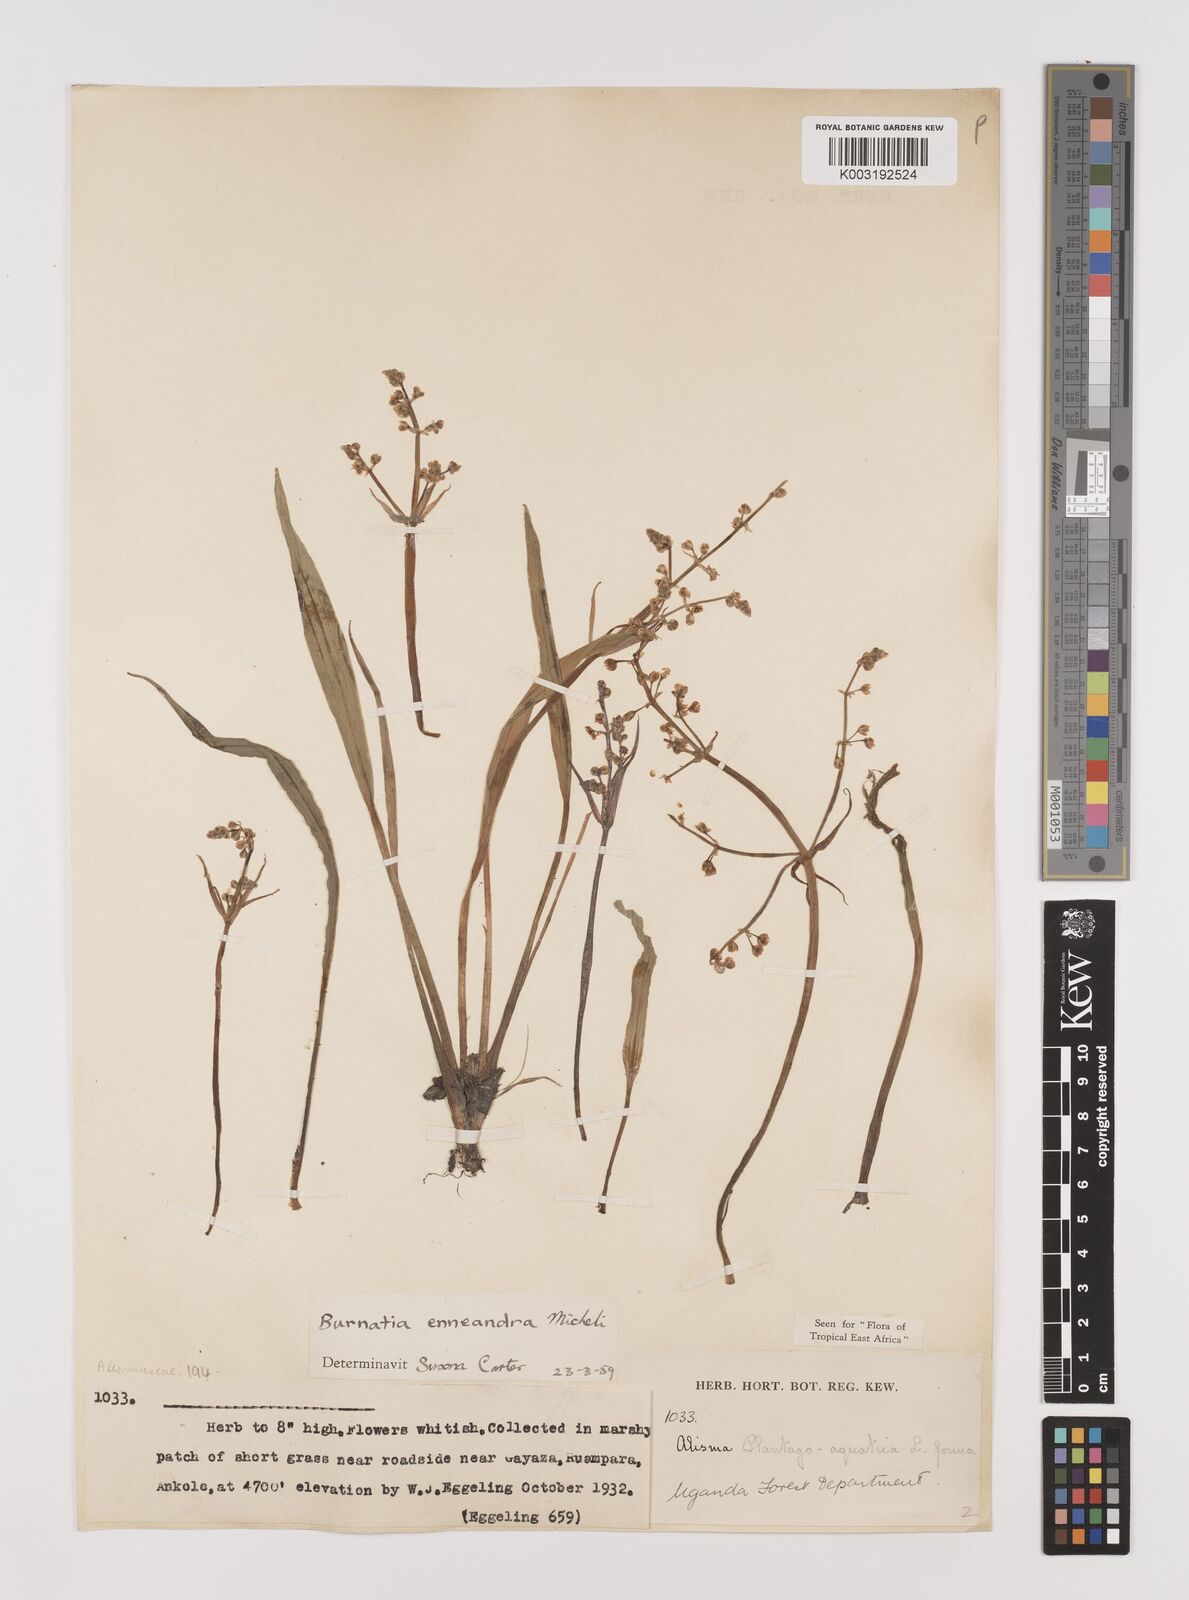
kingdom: Plantae
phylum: Tracheophyta
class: Liliopsida
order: Alismatales
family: Alismataceae
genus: Burnatia
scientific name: Burnatia enneandra
